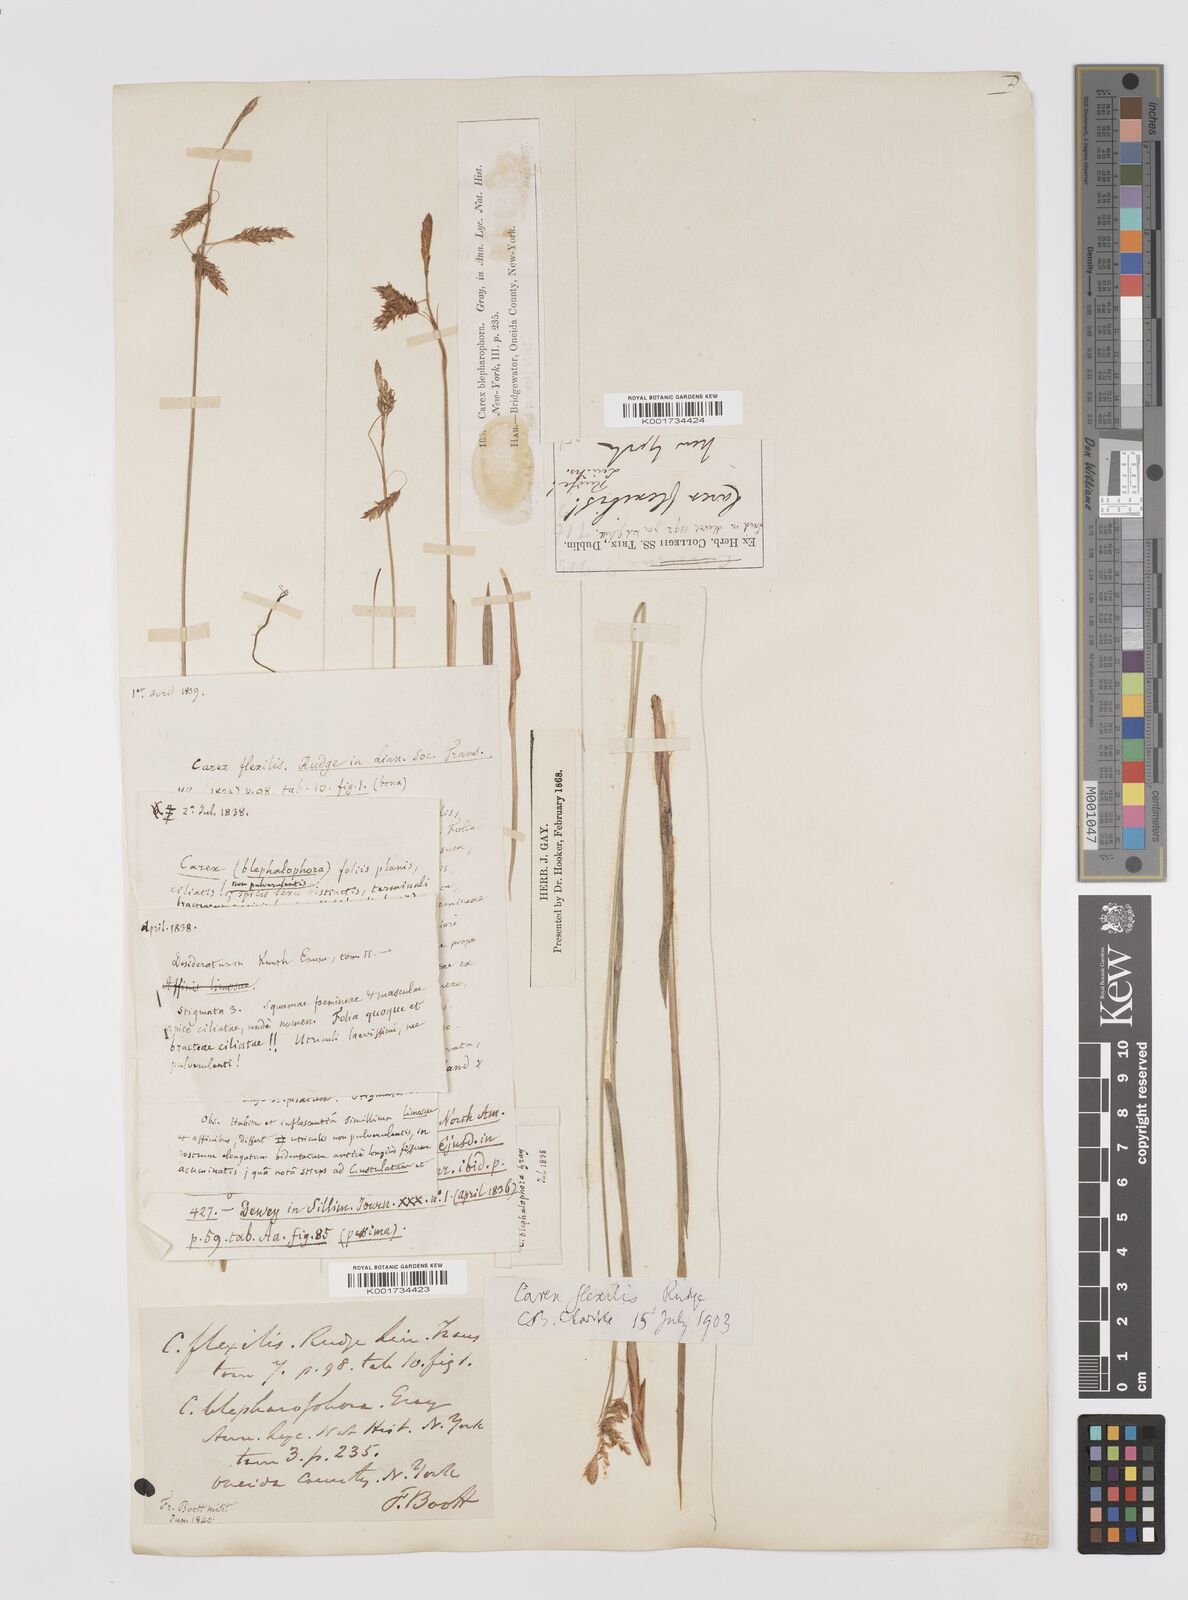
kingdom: Plantae
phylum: Tracheophyta
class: Liliopsida
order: Poales
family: Cyperaceae
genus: Carex
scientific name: Carex castanea
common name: Chestnut sedge
